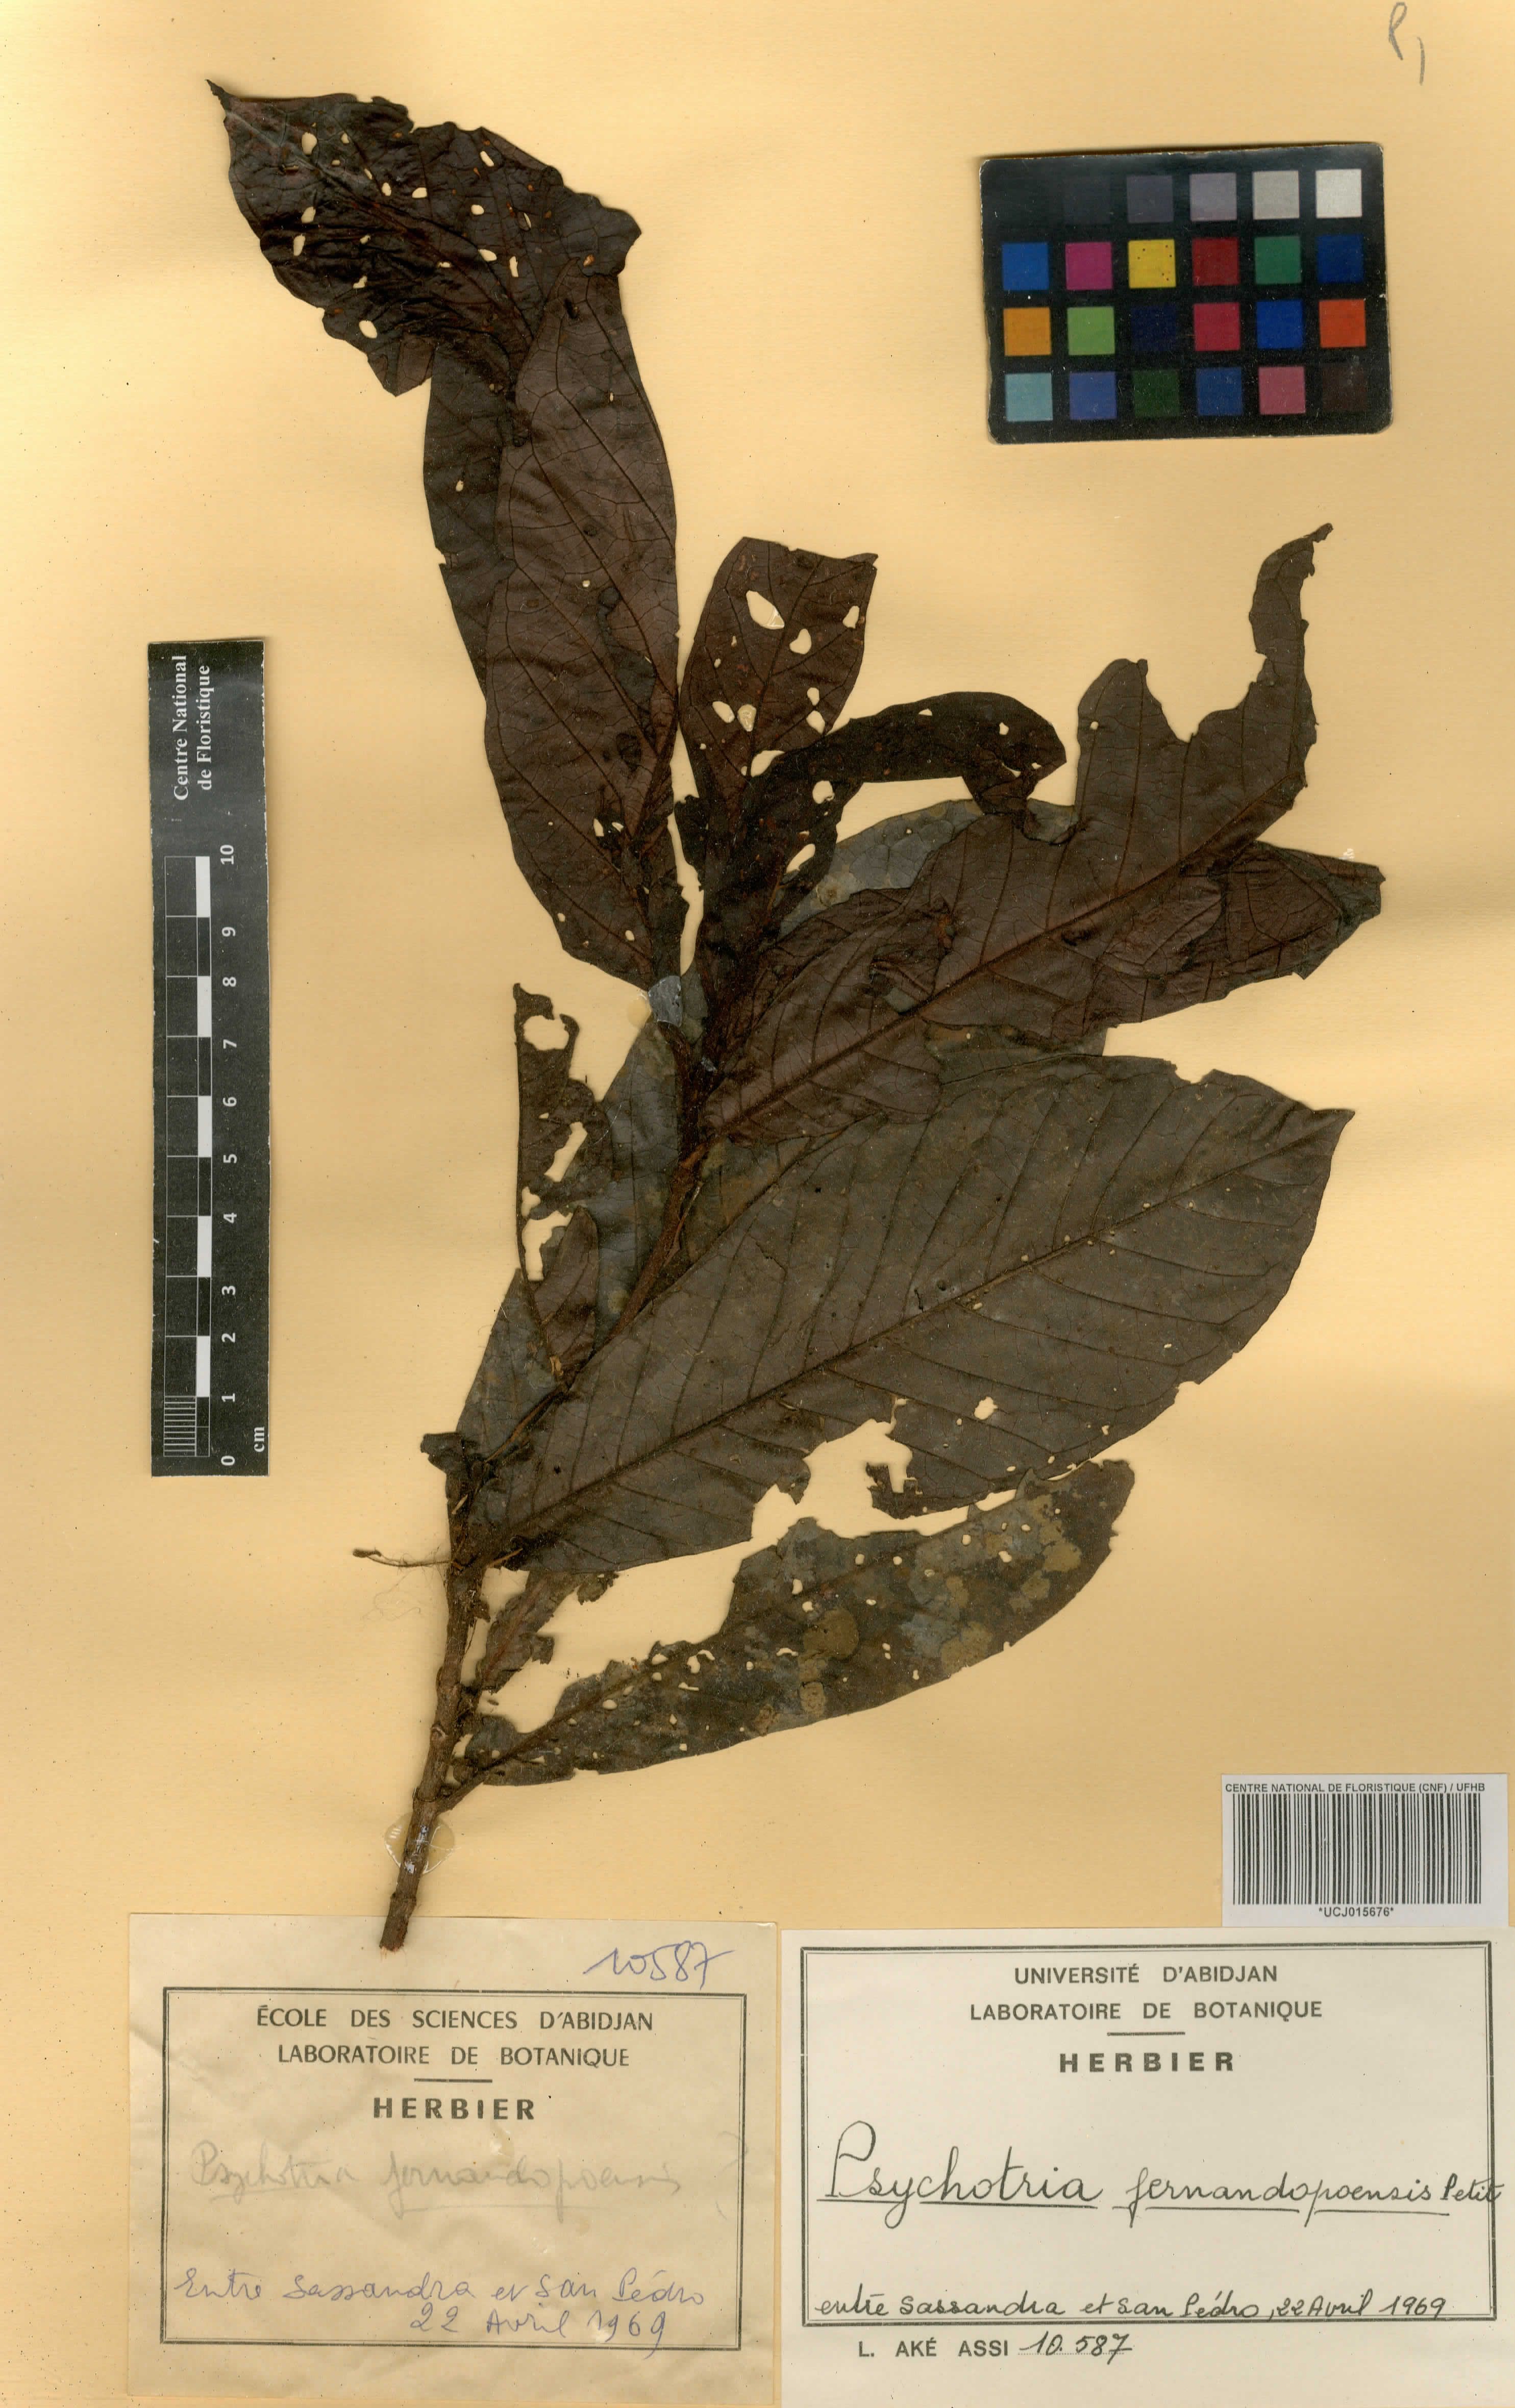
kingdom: Plantae
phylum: Tracheophyta
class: Magnoliopsida
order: Gentianales
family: Rubiaceae
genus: Psychotria
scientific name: Psychotria fernandopoensis
